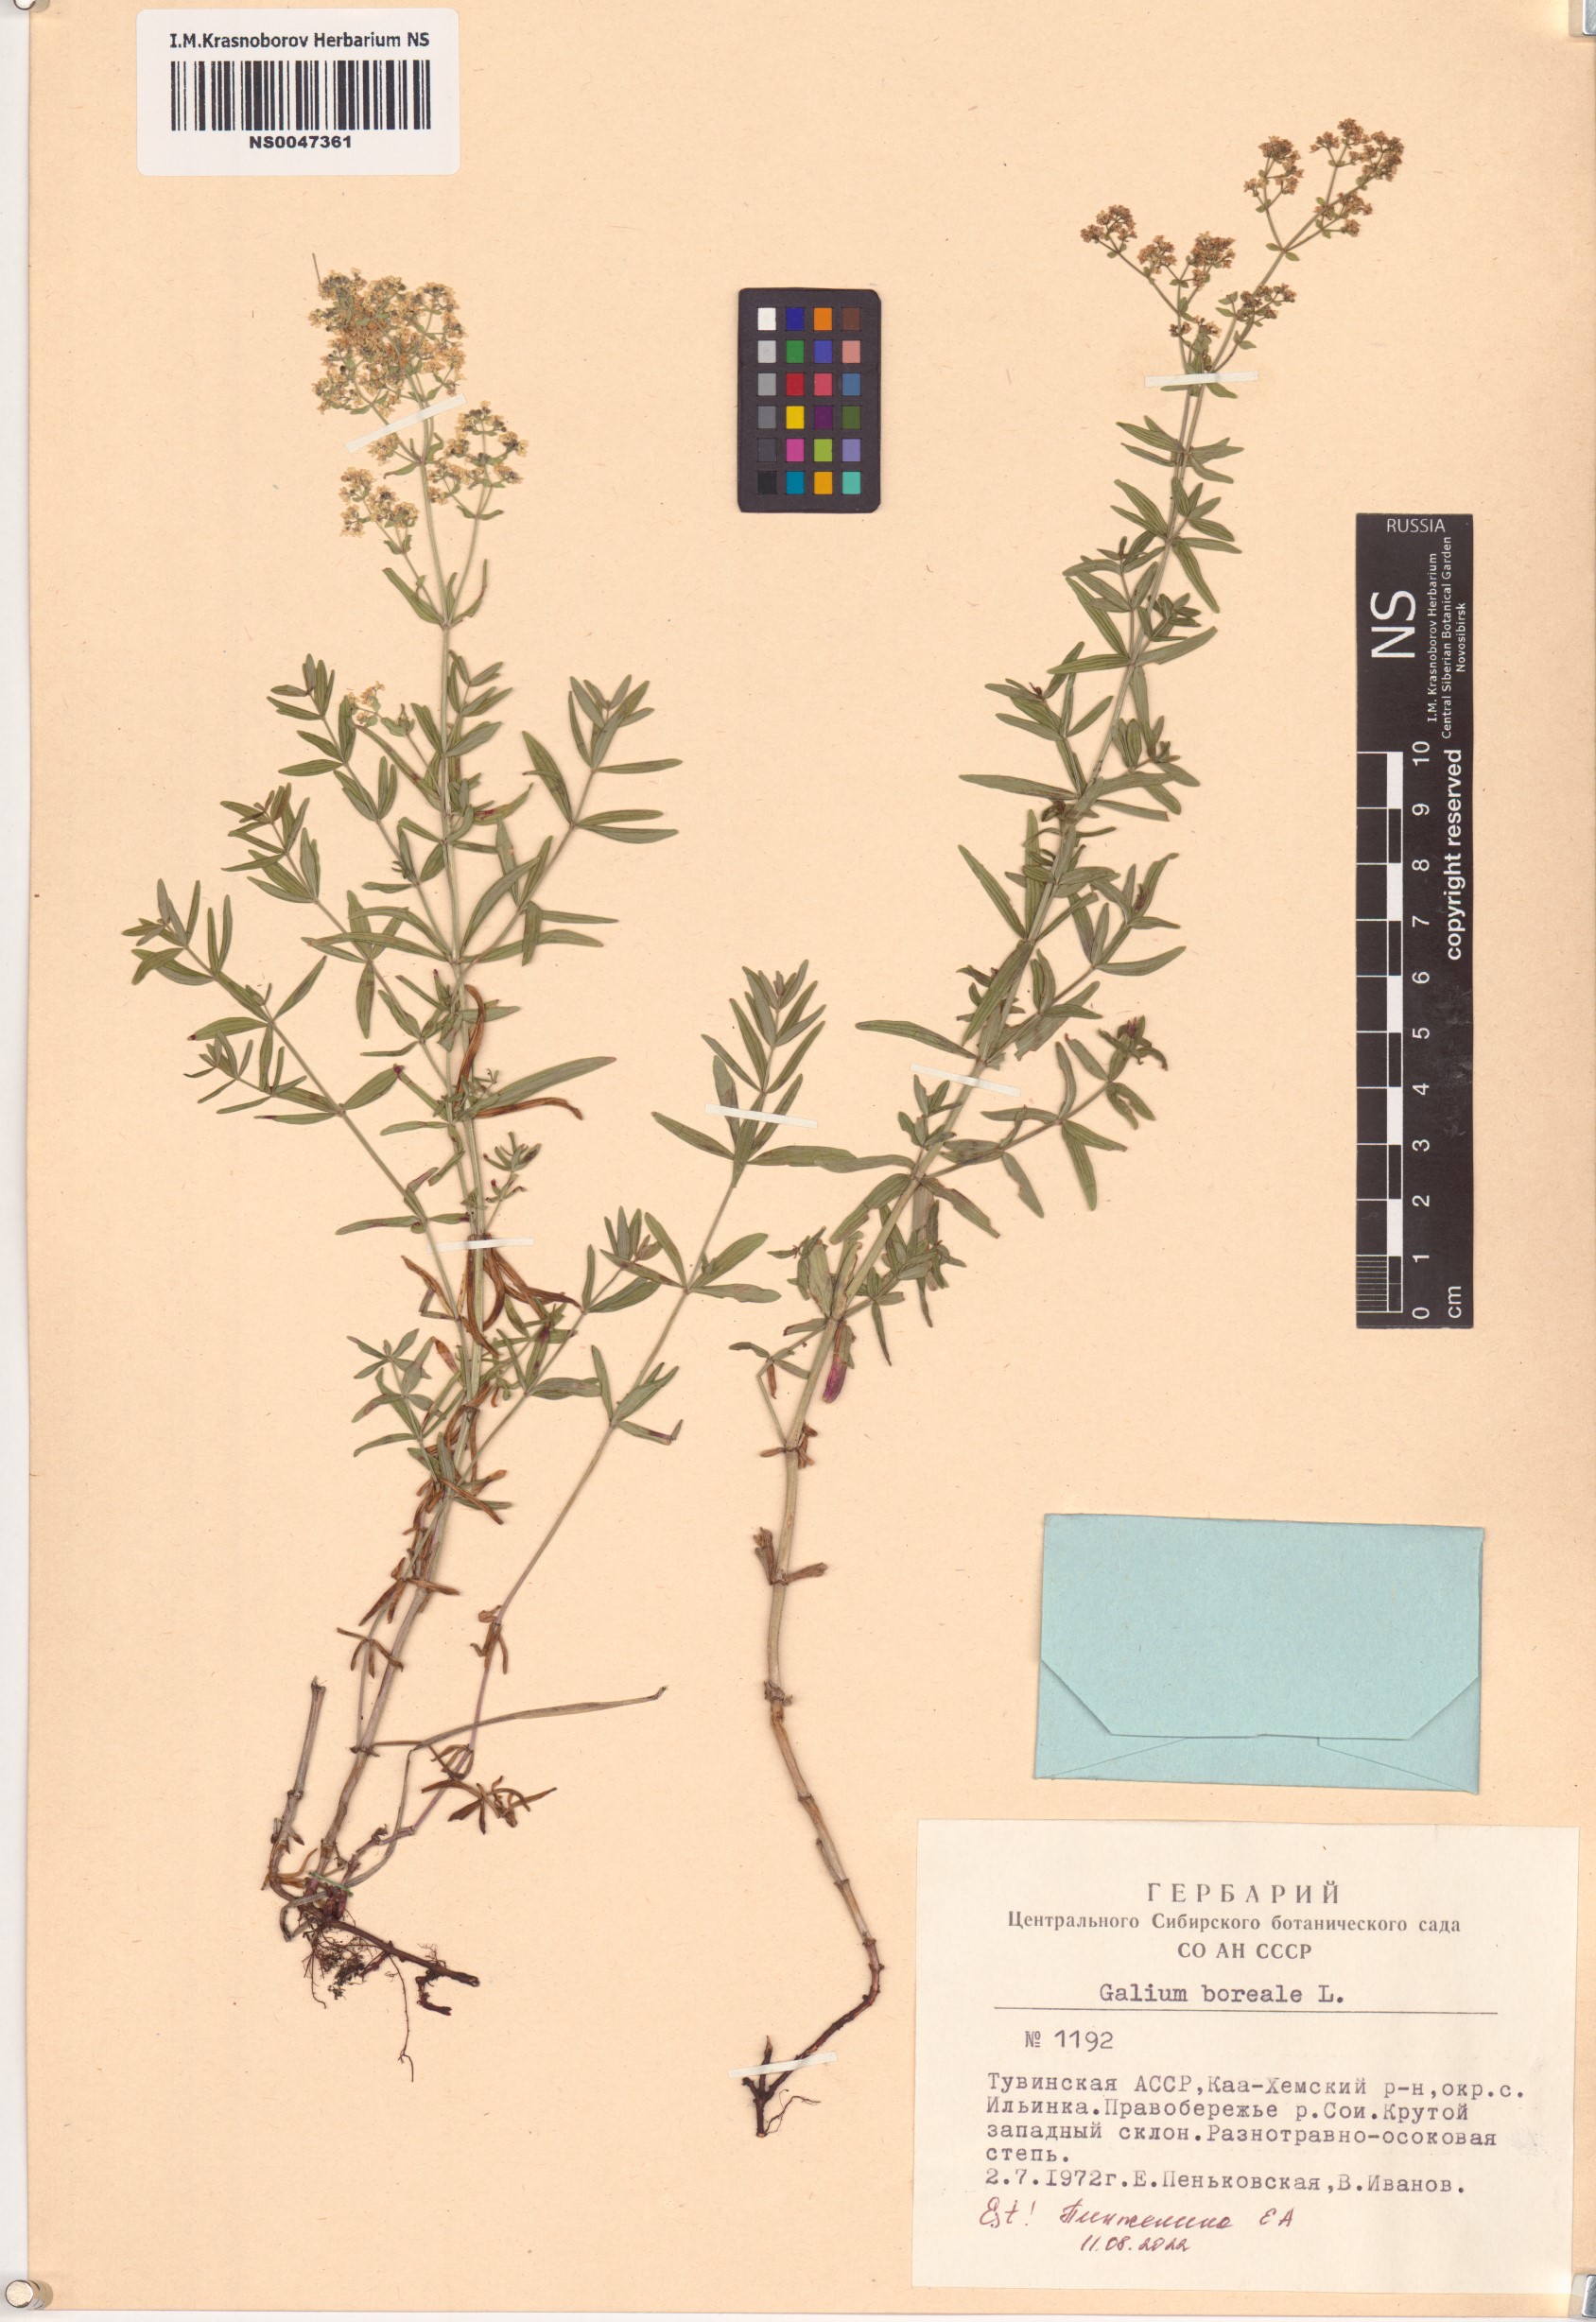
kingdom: Plantae
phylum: Tracheophyta
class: Magnoliopsida
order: Gentianales
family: Rubiaceae
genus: Galium
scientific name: Galium boreale
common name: Northern bedstraw
